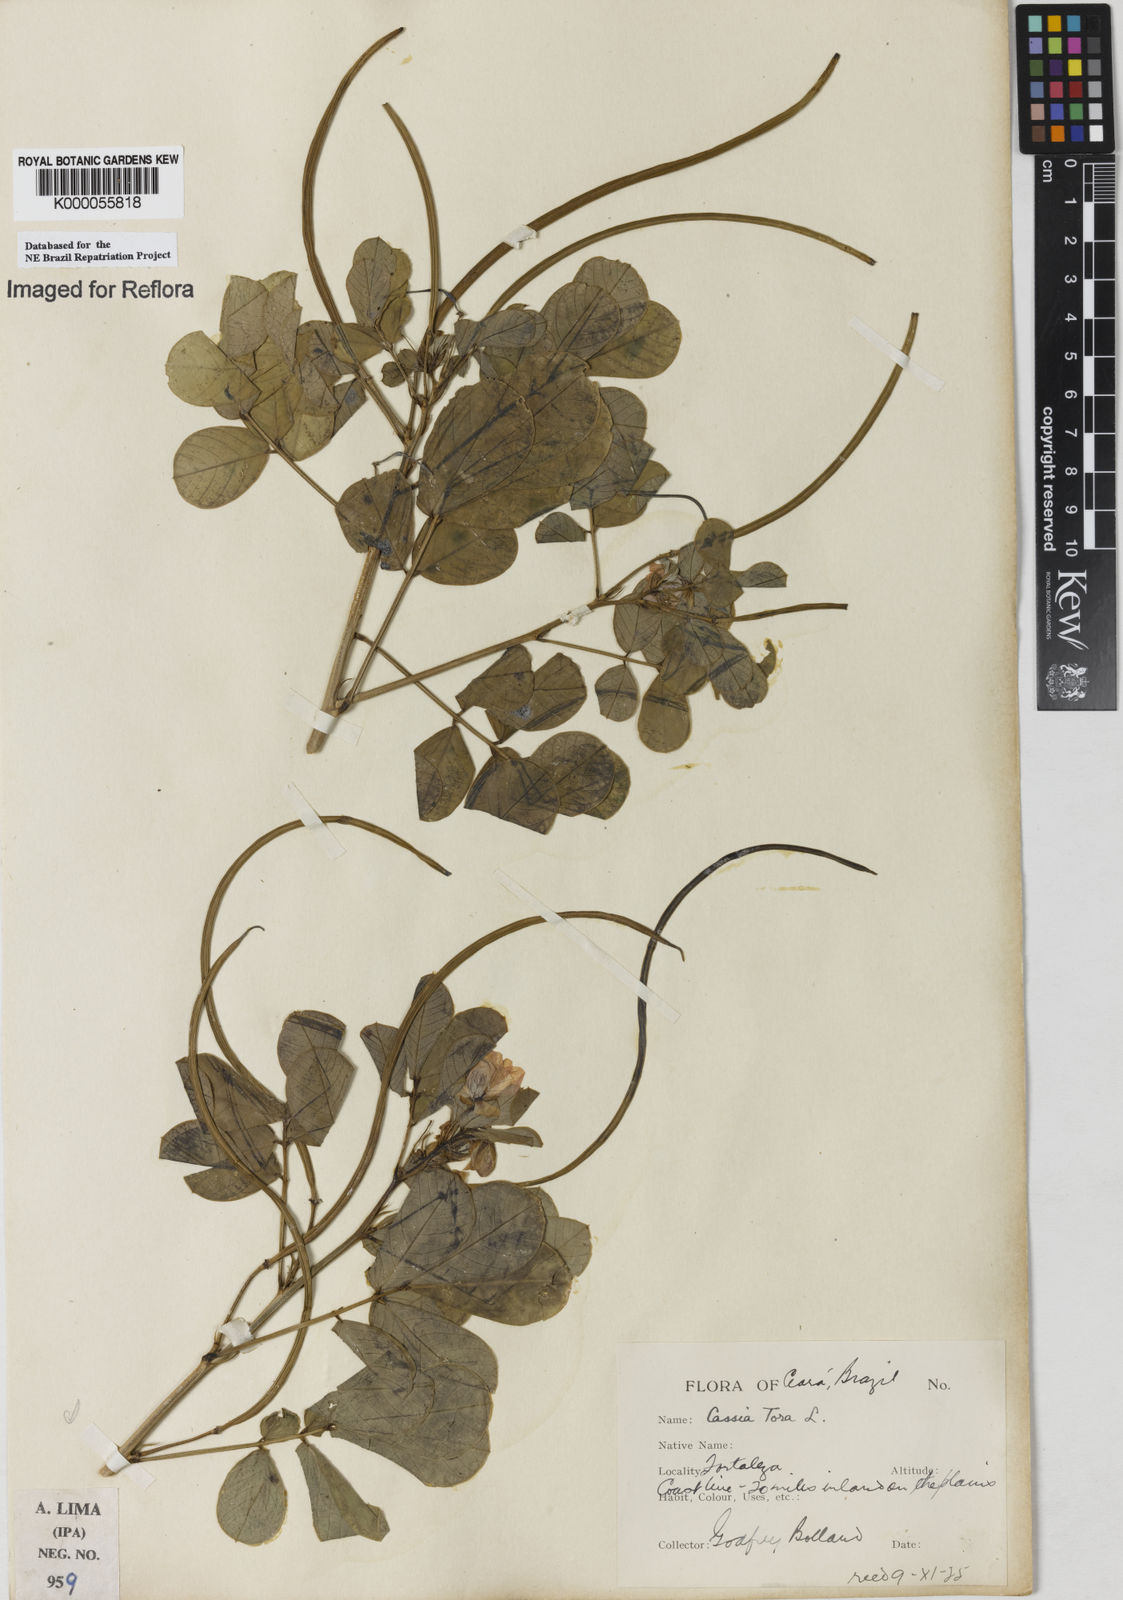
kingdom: Plantae
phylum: Tracheophyta
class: Magnoliopsida
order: Fabales
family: Fabaceae
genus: Senna
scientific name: Senna obtusifolia
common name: Java-bean
